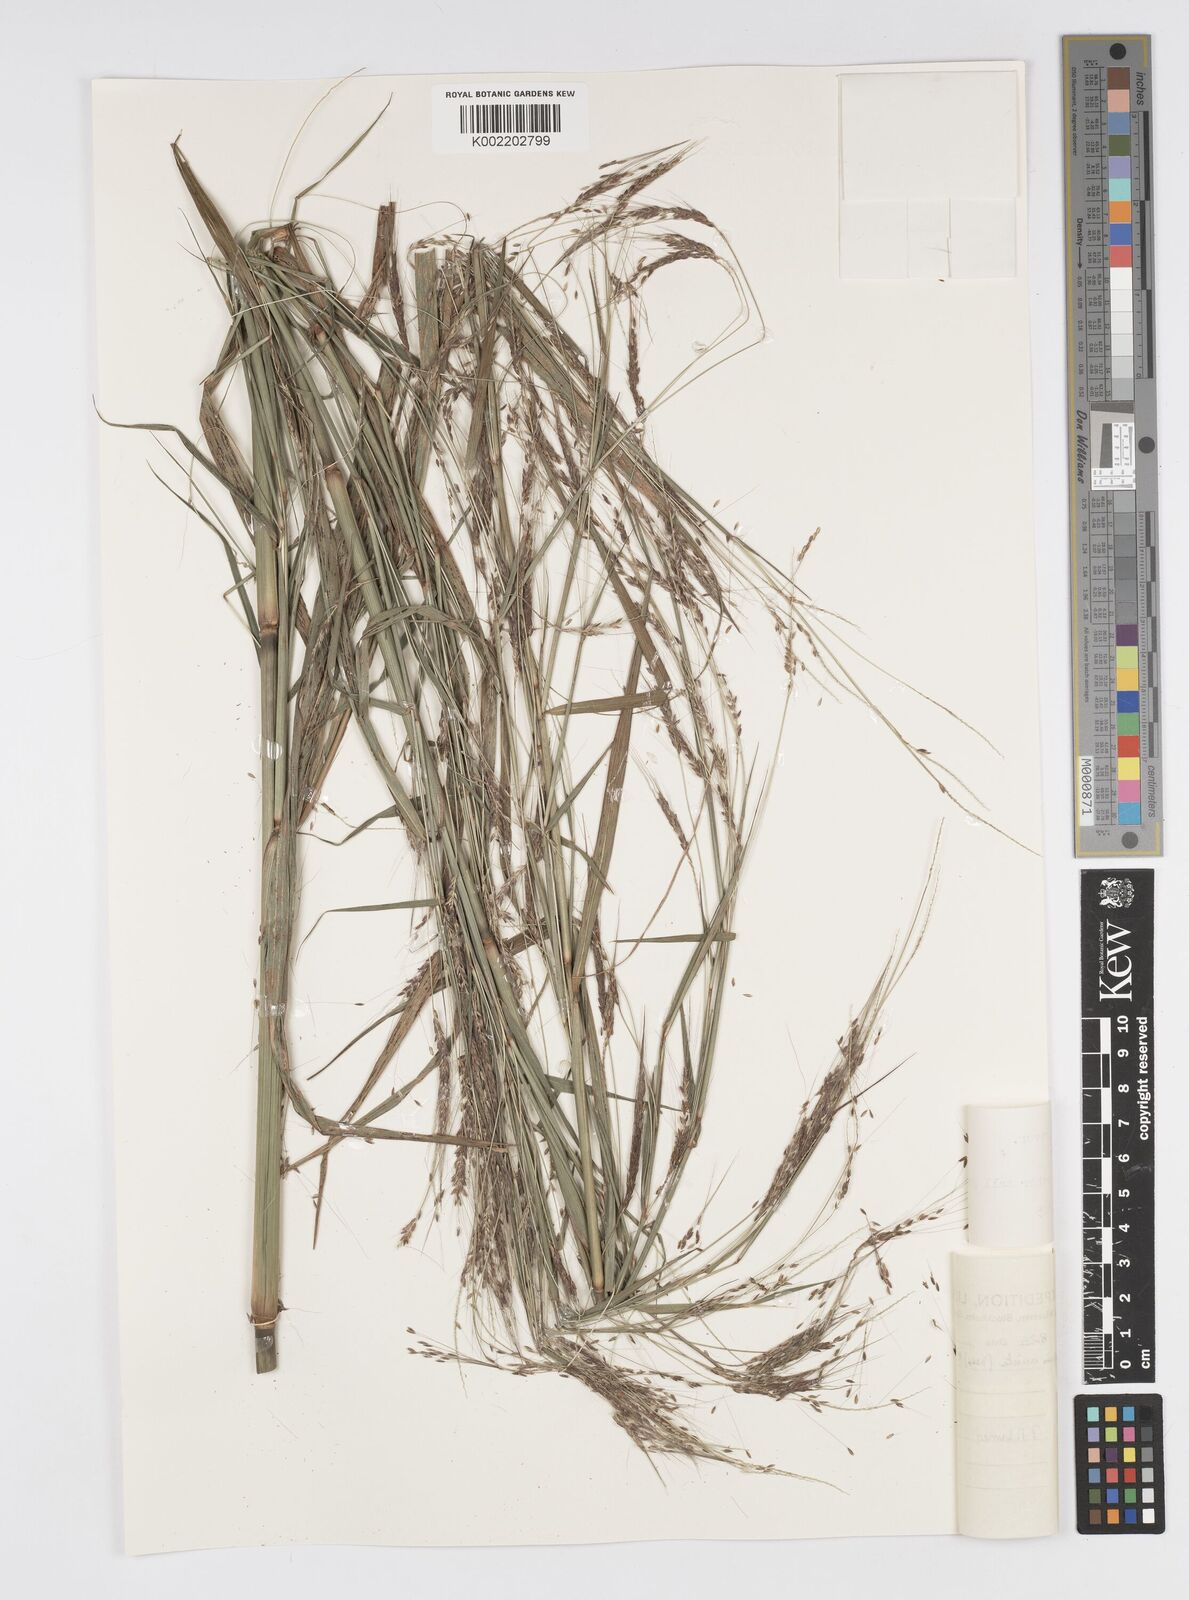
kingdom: Plantae
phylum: Tracheophyta
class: Liliopsida
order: Poales
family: Poaceae
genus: Cenchrus
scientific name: Cenchrus unisetus
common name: Natal grass
